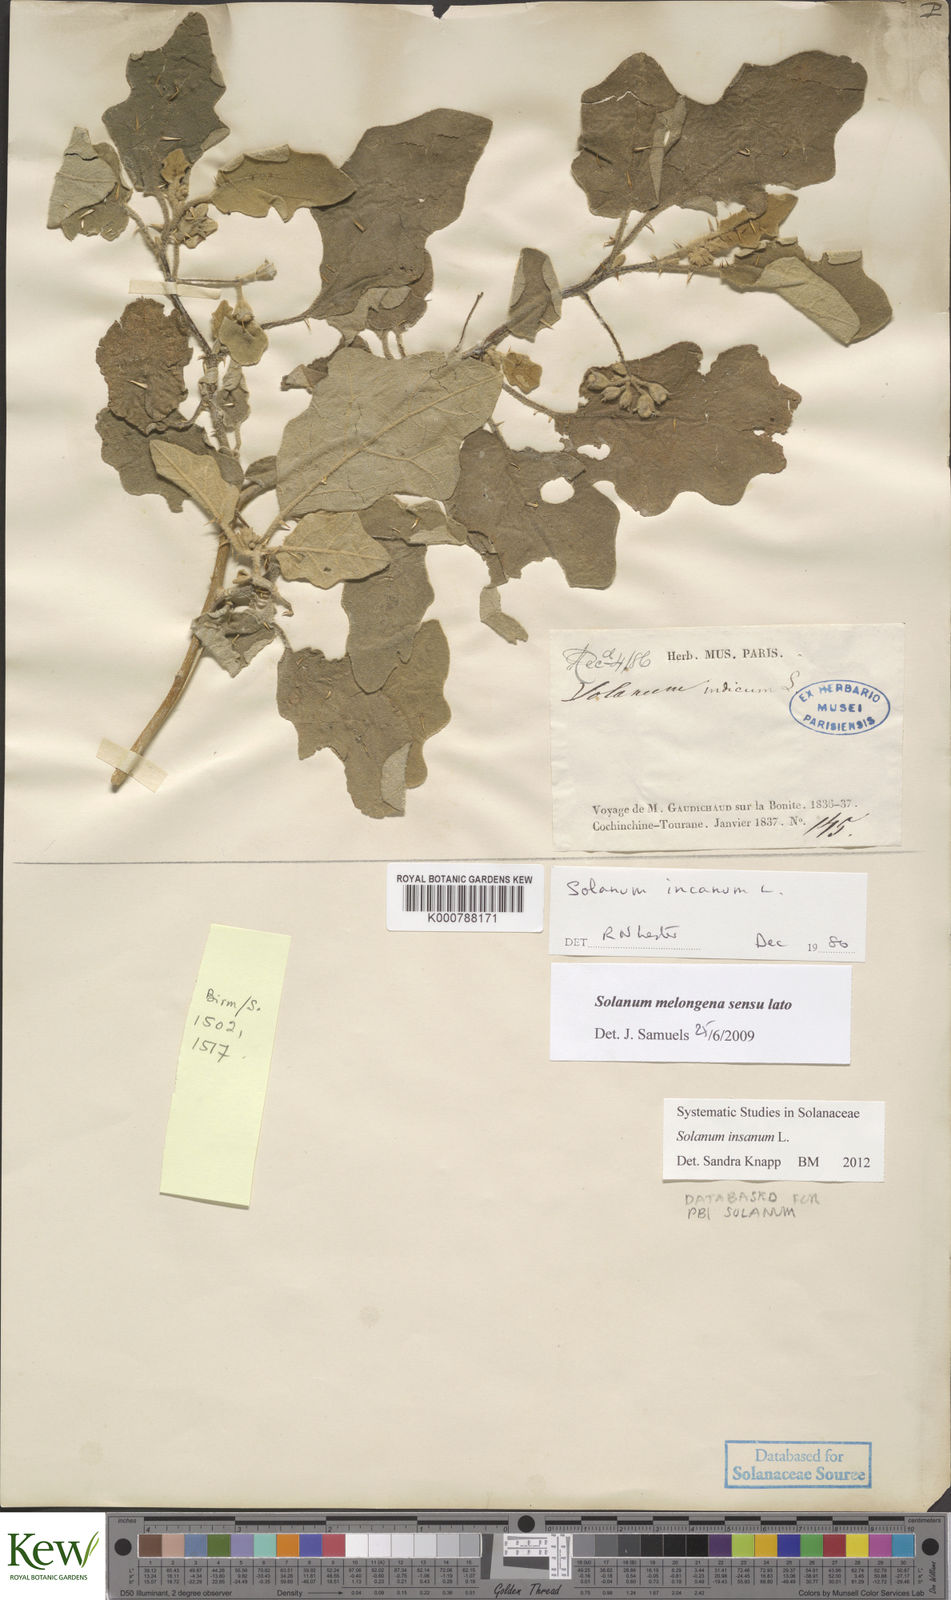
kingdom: Plantae
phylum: Tracheophyta
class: Magnoliopsida
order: Solanales
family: Solanaceae
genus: Solanum
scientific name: Solanum insanum
